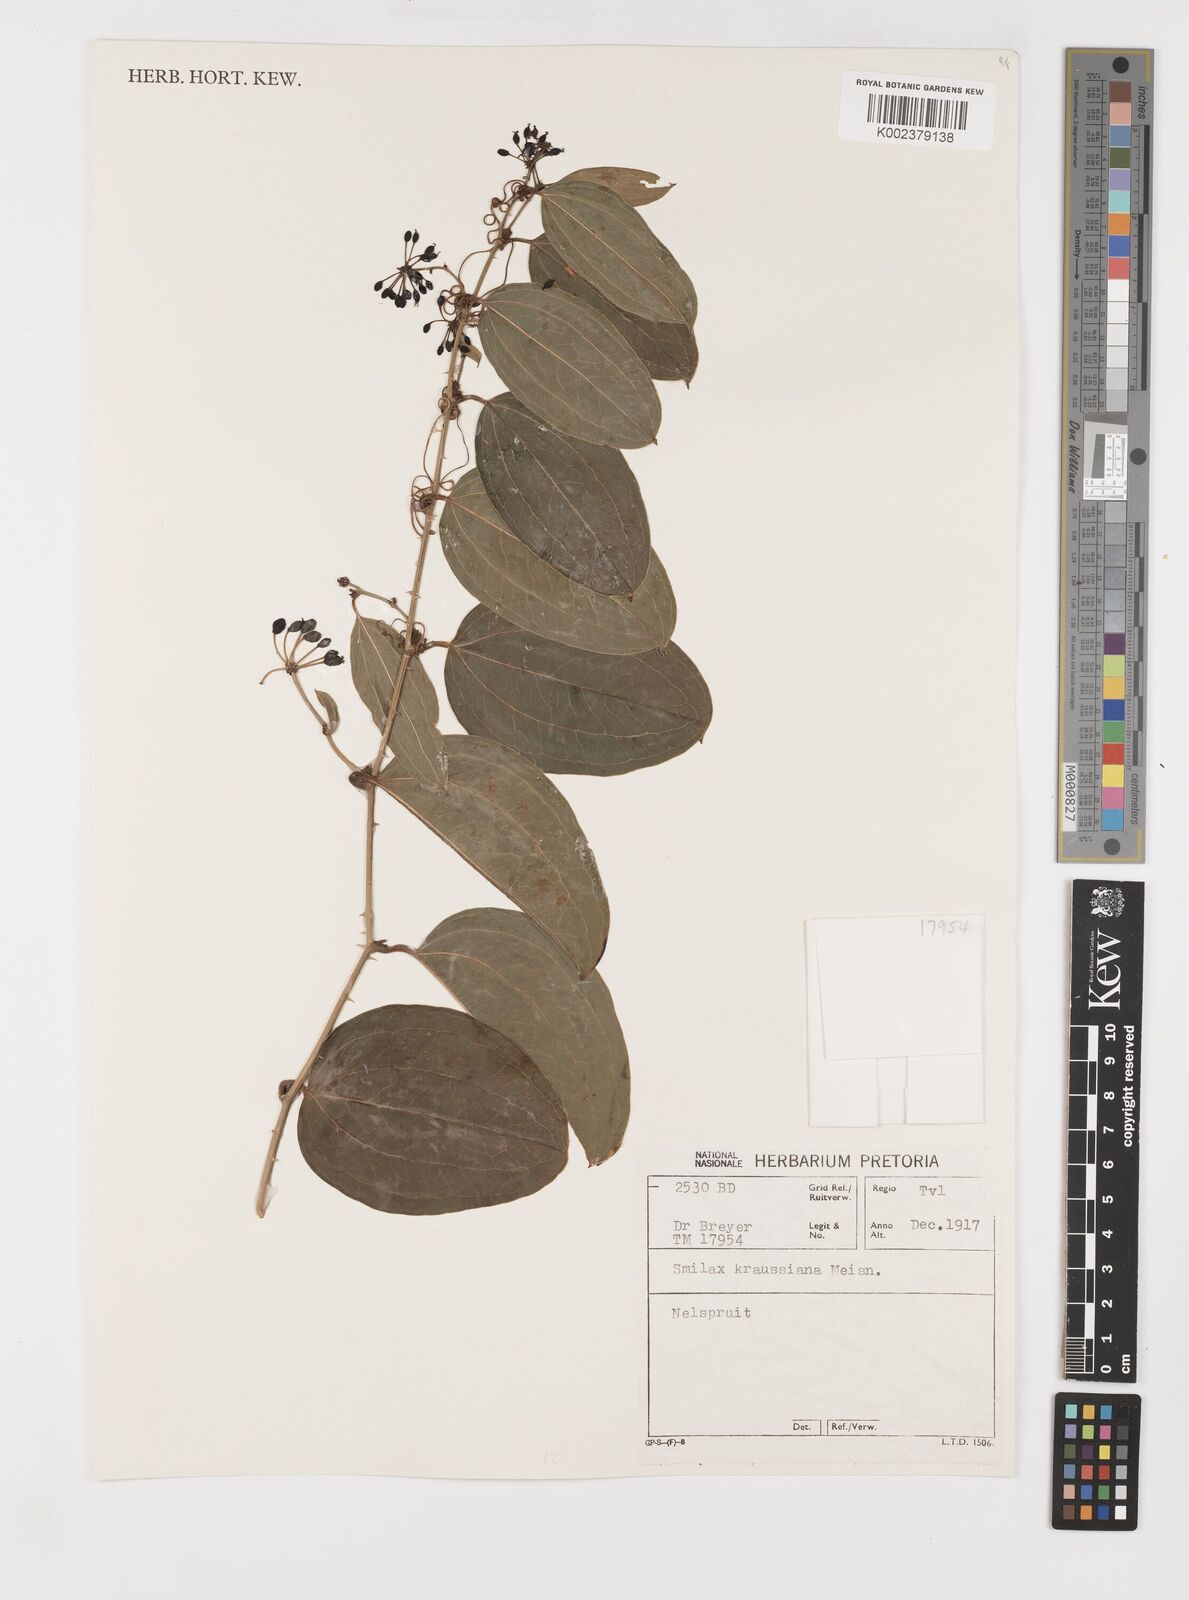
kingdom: Plantae
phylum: Tracheophyta
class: Liliopsida
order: Liliales
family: Smilacaceae
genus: Smilax
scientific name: Smilax anceps
